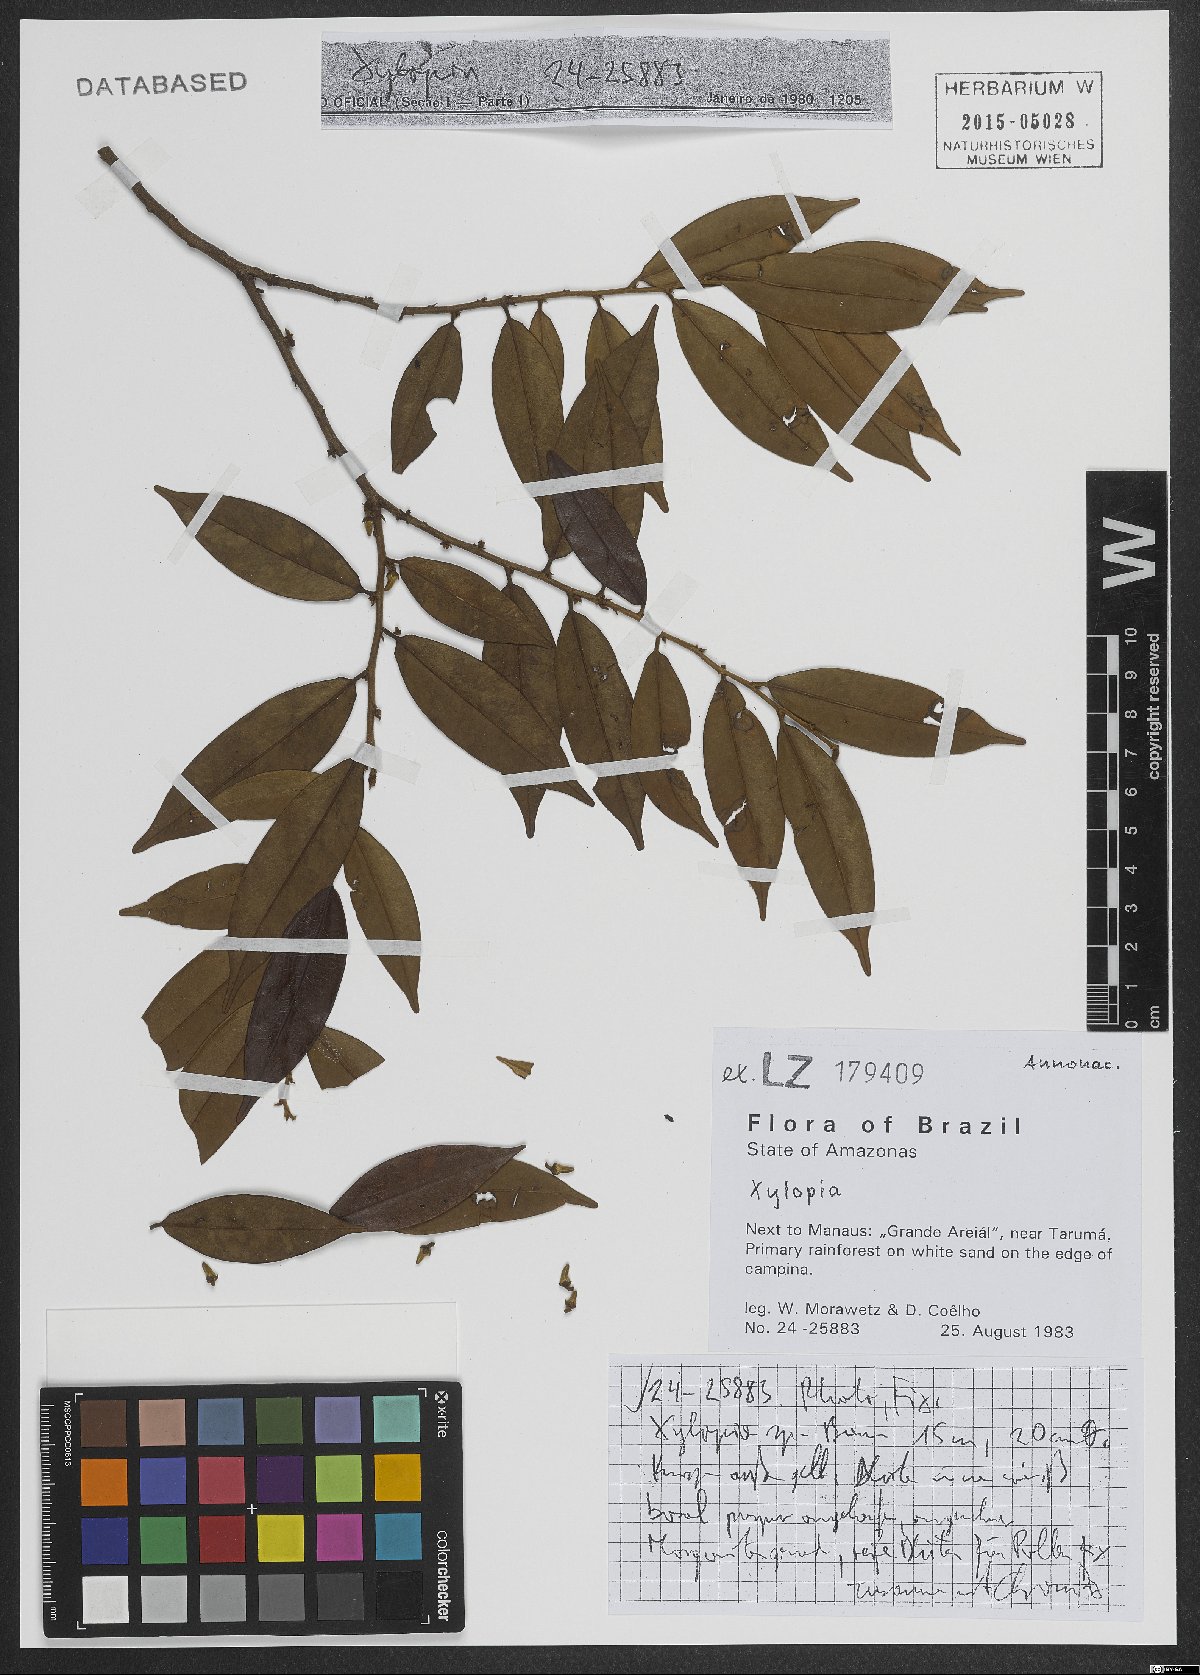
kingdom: Plantae
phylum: Tracheophyta
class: Magnoliopsida
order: Magnoliales
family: Annonaceae
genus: Xylopia
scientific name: Xylopia
